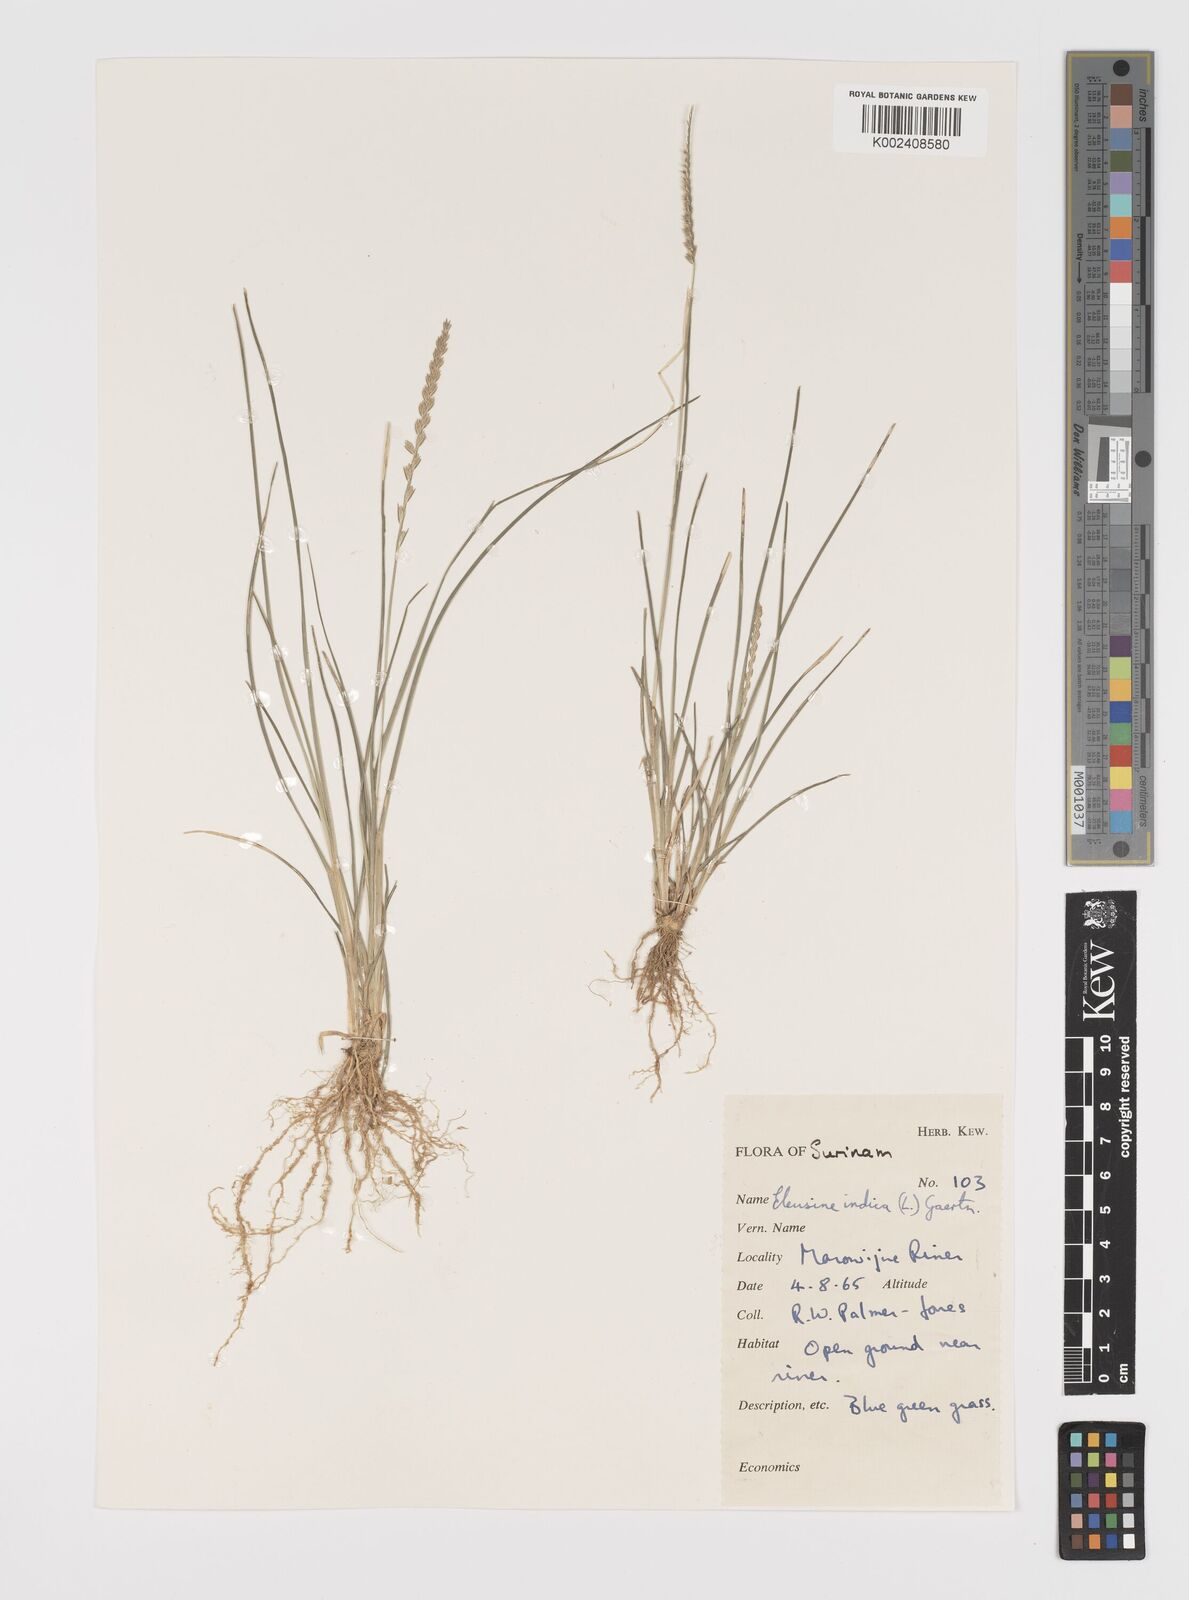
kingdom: Plantae
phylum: Tracheophyta
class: Liliopsida
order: Poales
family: Poaceae
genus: Eleusine
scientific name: Eleusine indica
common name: Yard-grass
